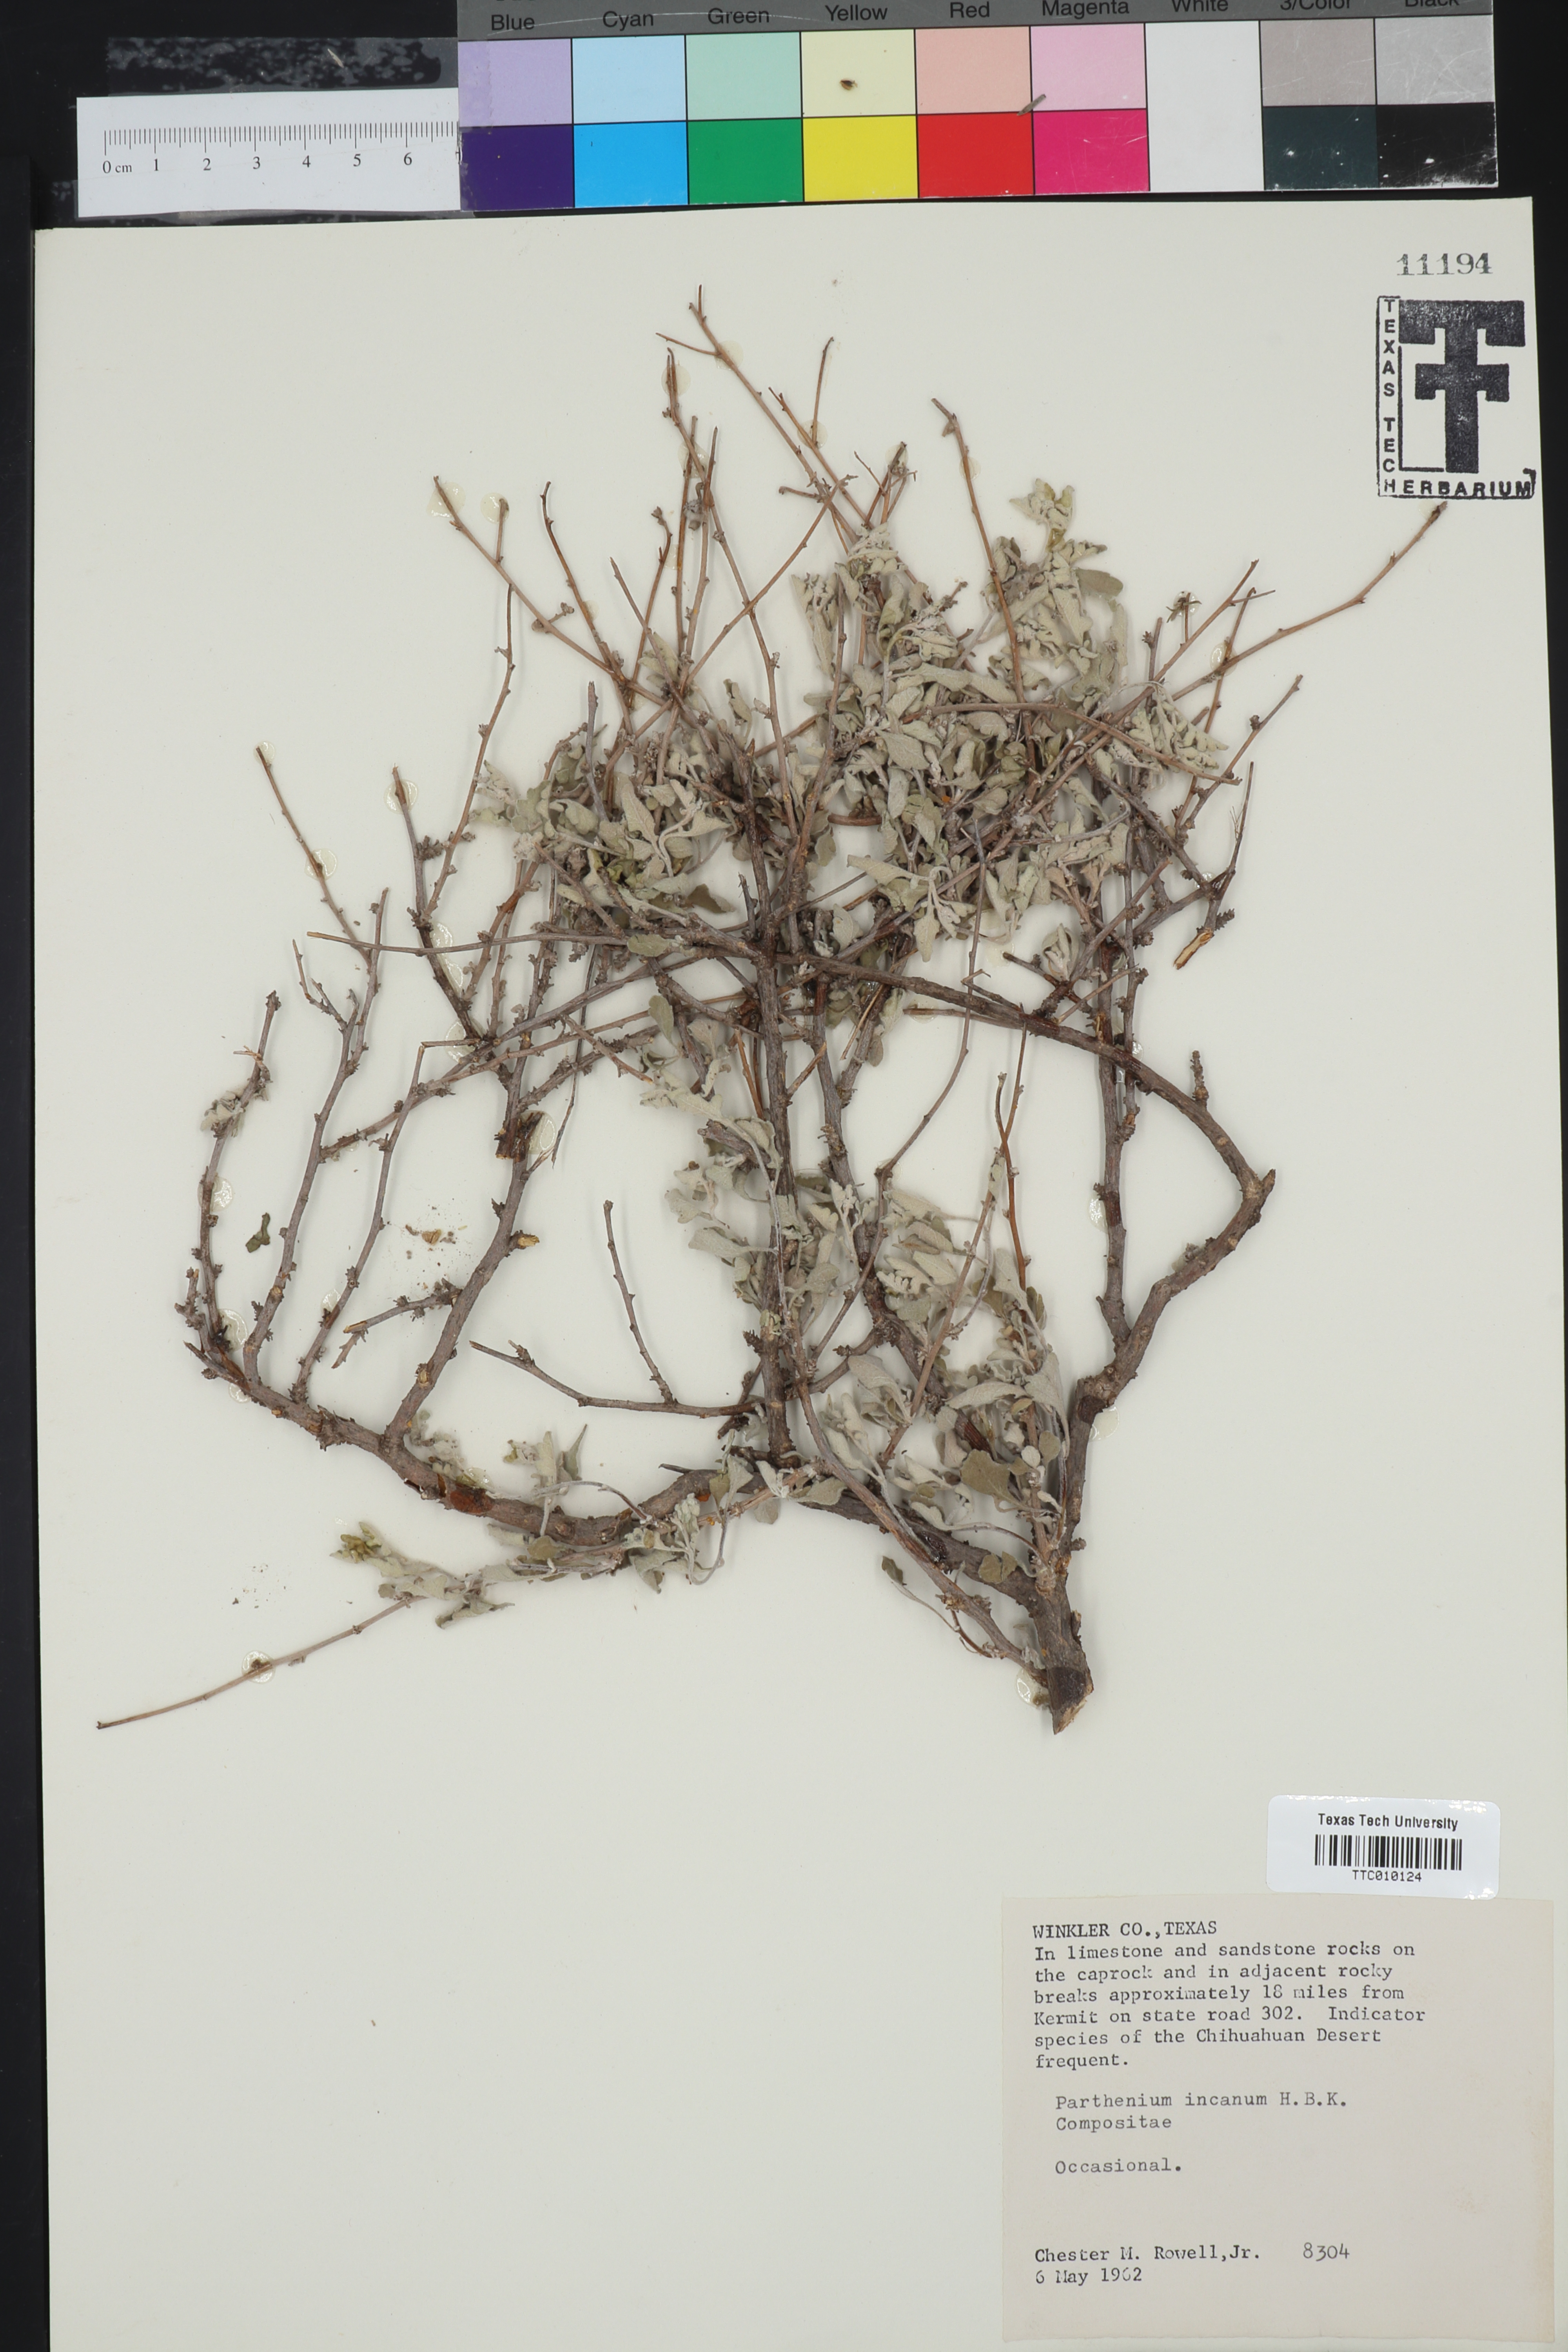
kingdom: Plantae
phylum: Tracheophyta
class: Magnoliopsida
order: Asterales
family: Asteraceae
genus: Parthenium
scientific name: Parthenium incanum
